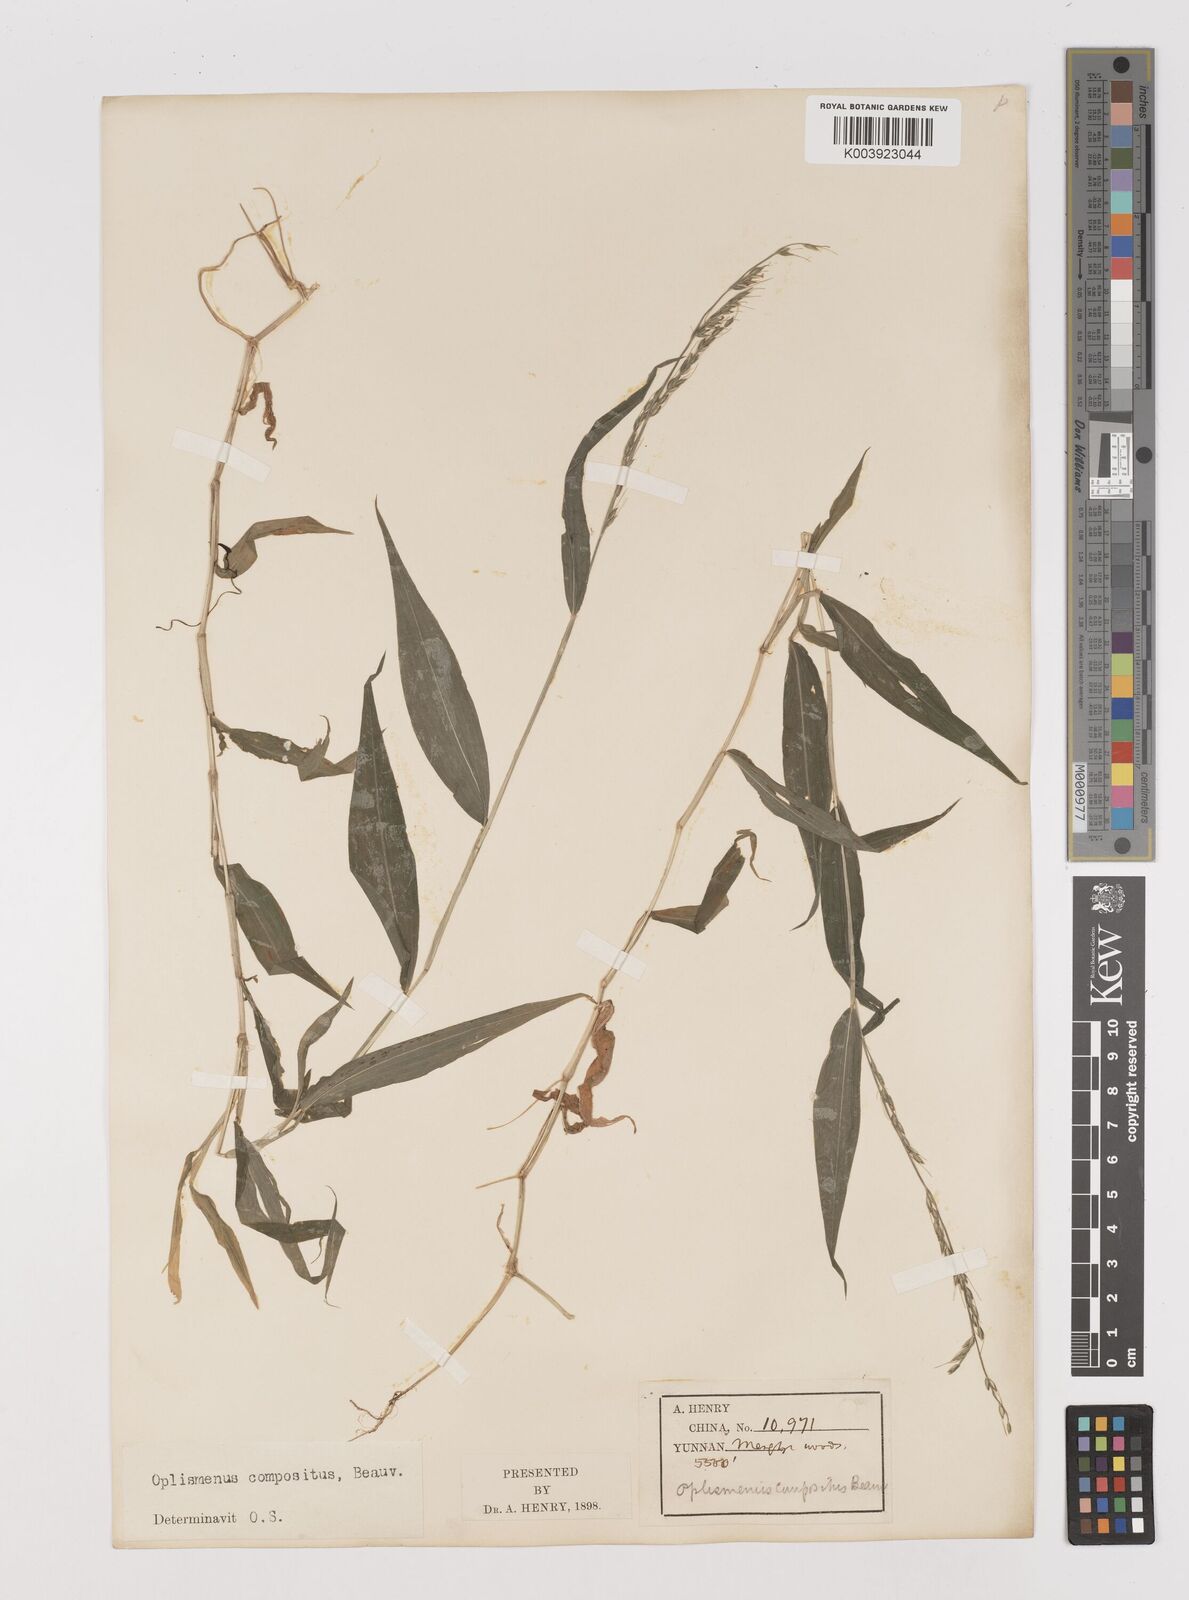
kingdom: Plantae
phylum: Tracheophyta
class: Liliopsida
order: Poales
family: Poaceae
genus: Oplismenus
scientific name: Oplismenus compositus
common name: Running mountain grass
